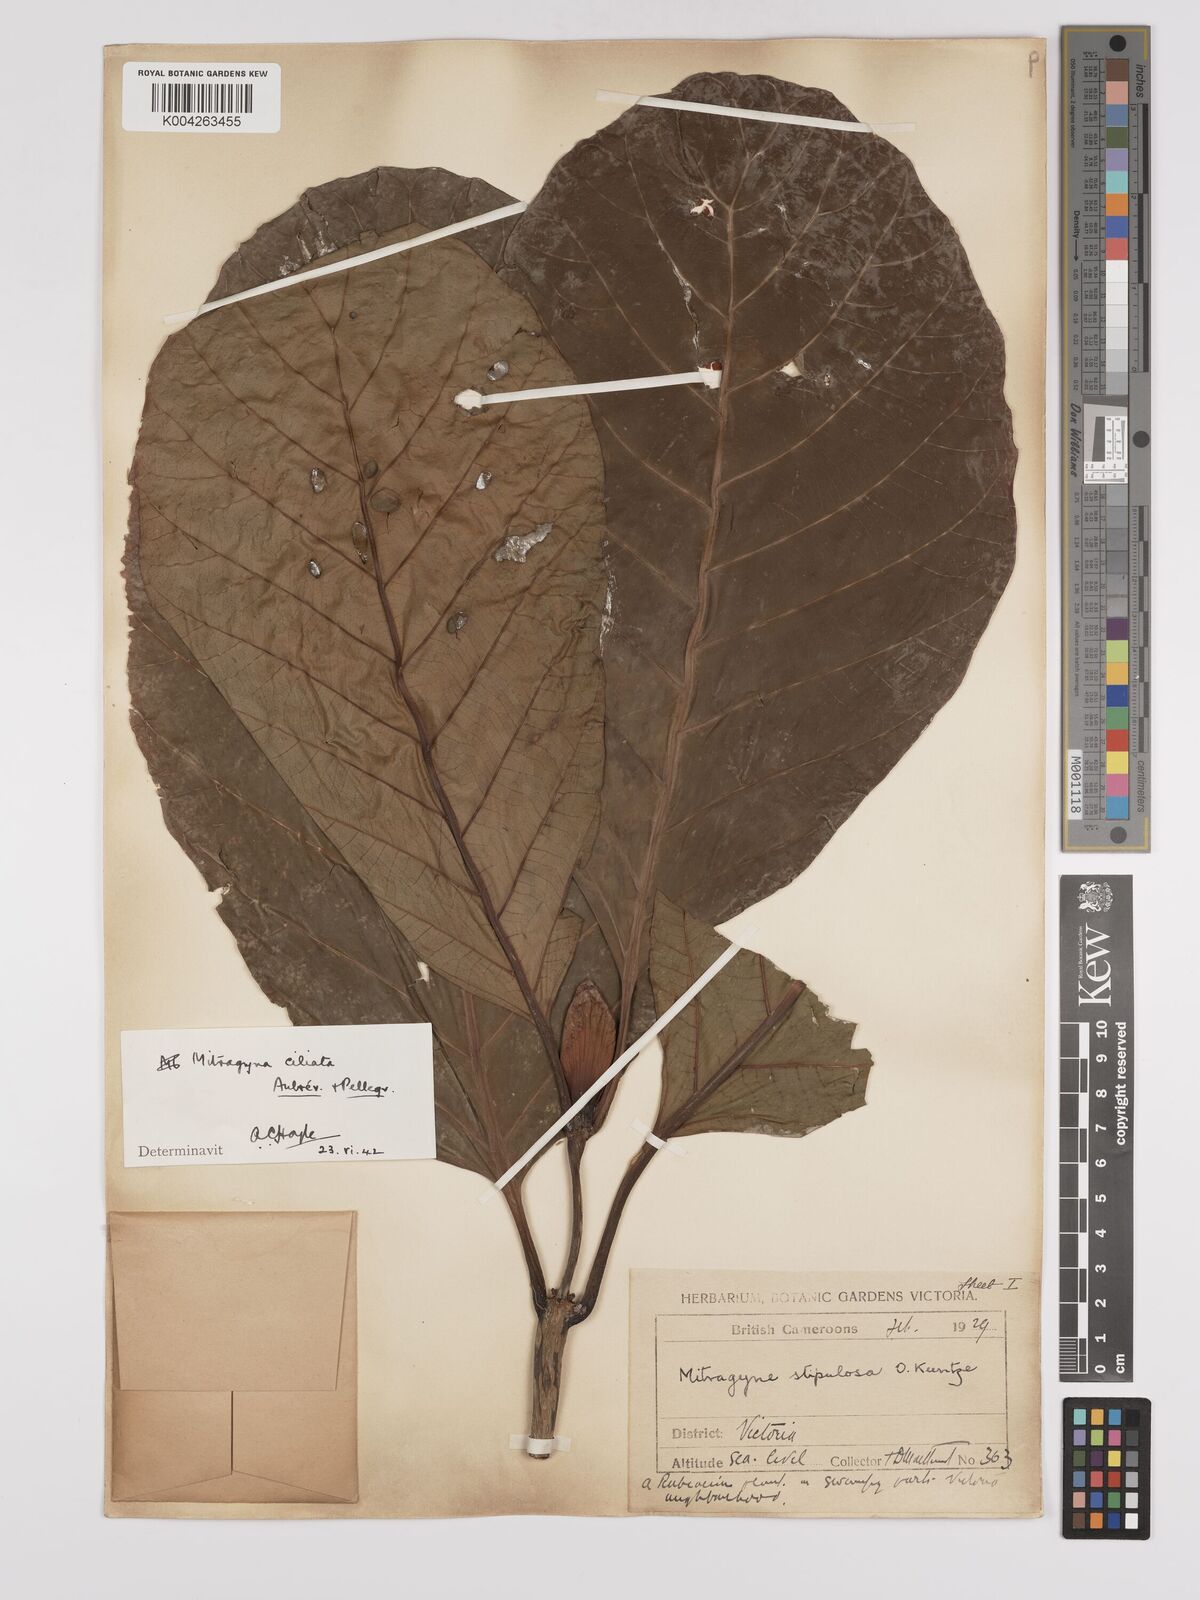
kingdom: Plantae
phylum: Tracheophyta
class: Magnoliopsida
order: Gentianales
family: Rubiaceae
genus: Mitragyna
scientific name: Mitragyna stipulosa
